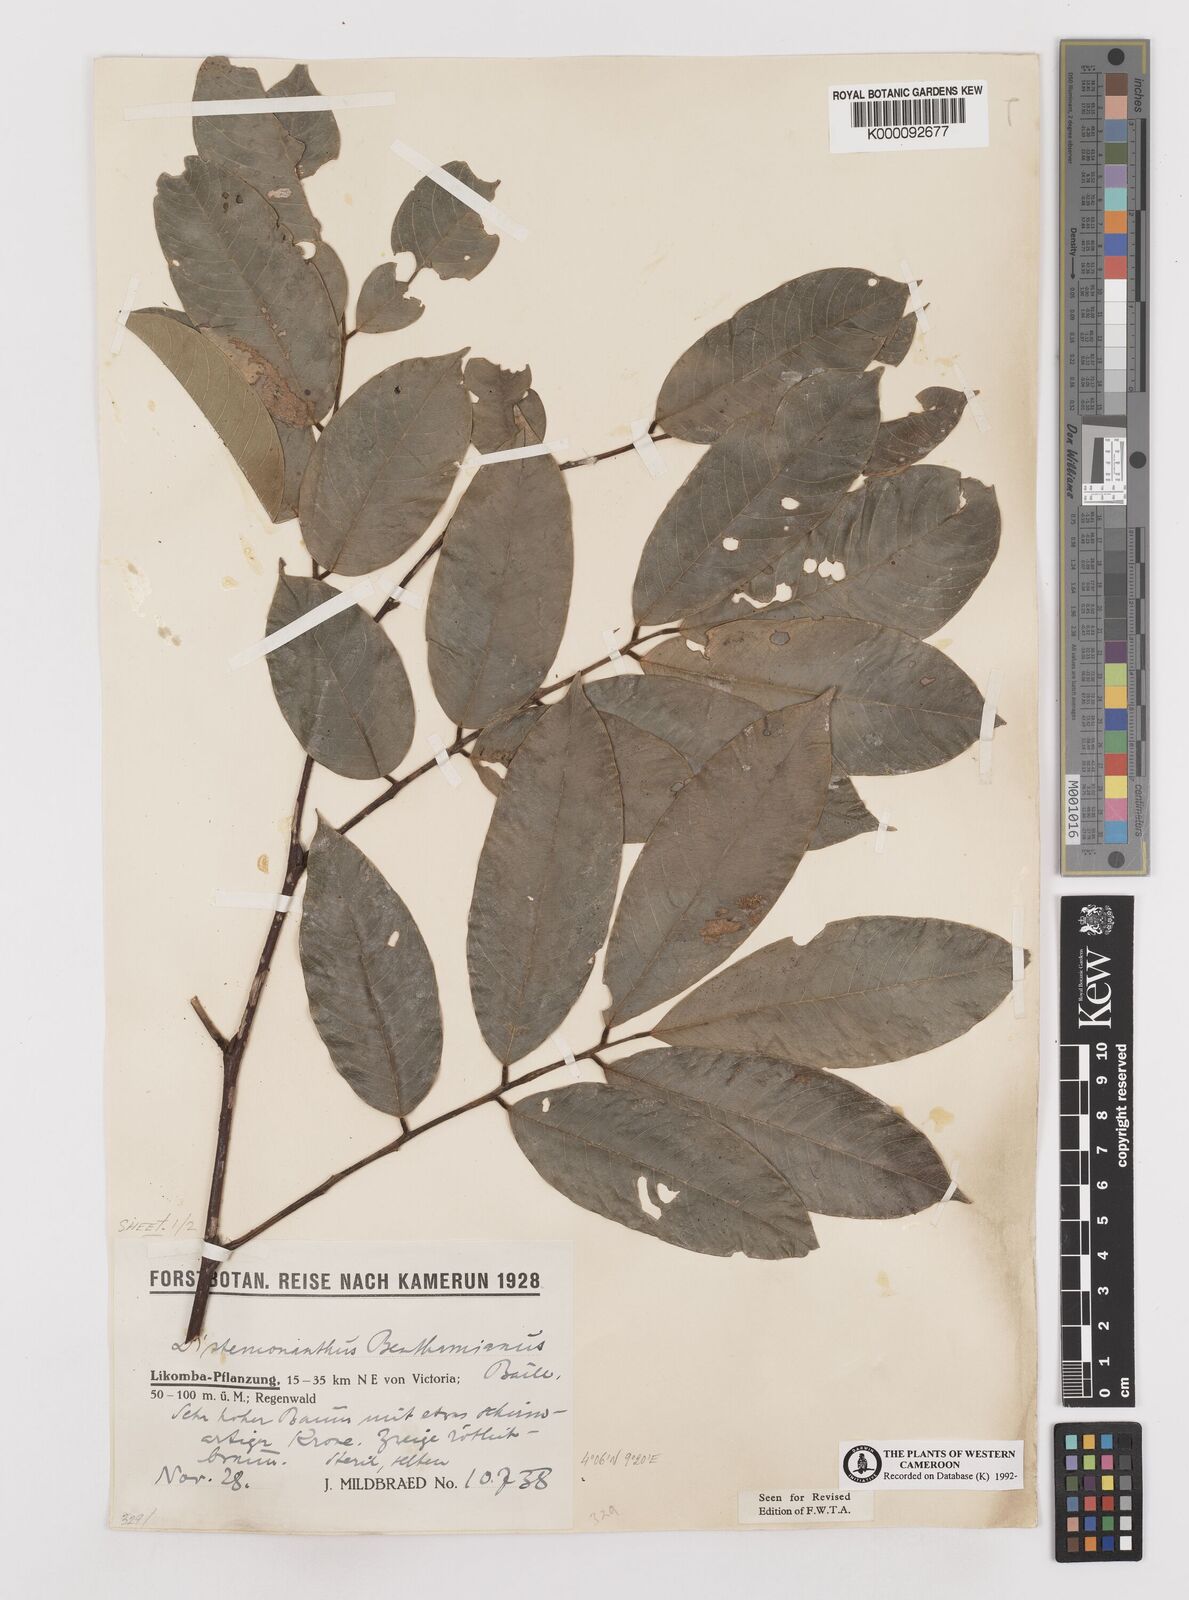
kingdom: Plantae
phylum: Tracheophyta
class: Magnoliopsida
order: Fabales
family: Fabaceae
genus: Distemonanthus
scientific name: Distemonanthus benthamianus
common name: Yellow satinwood
